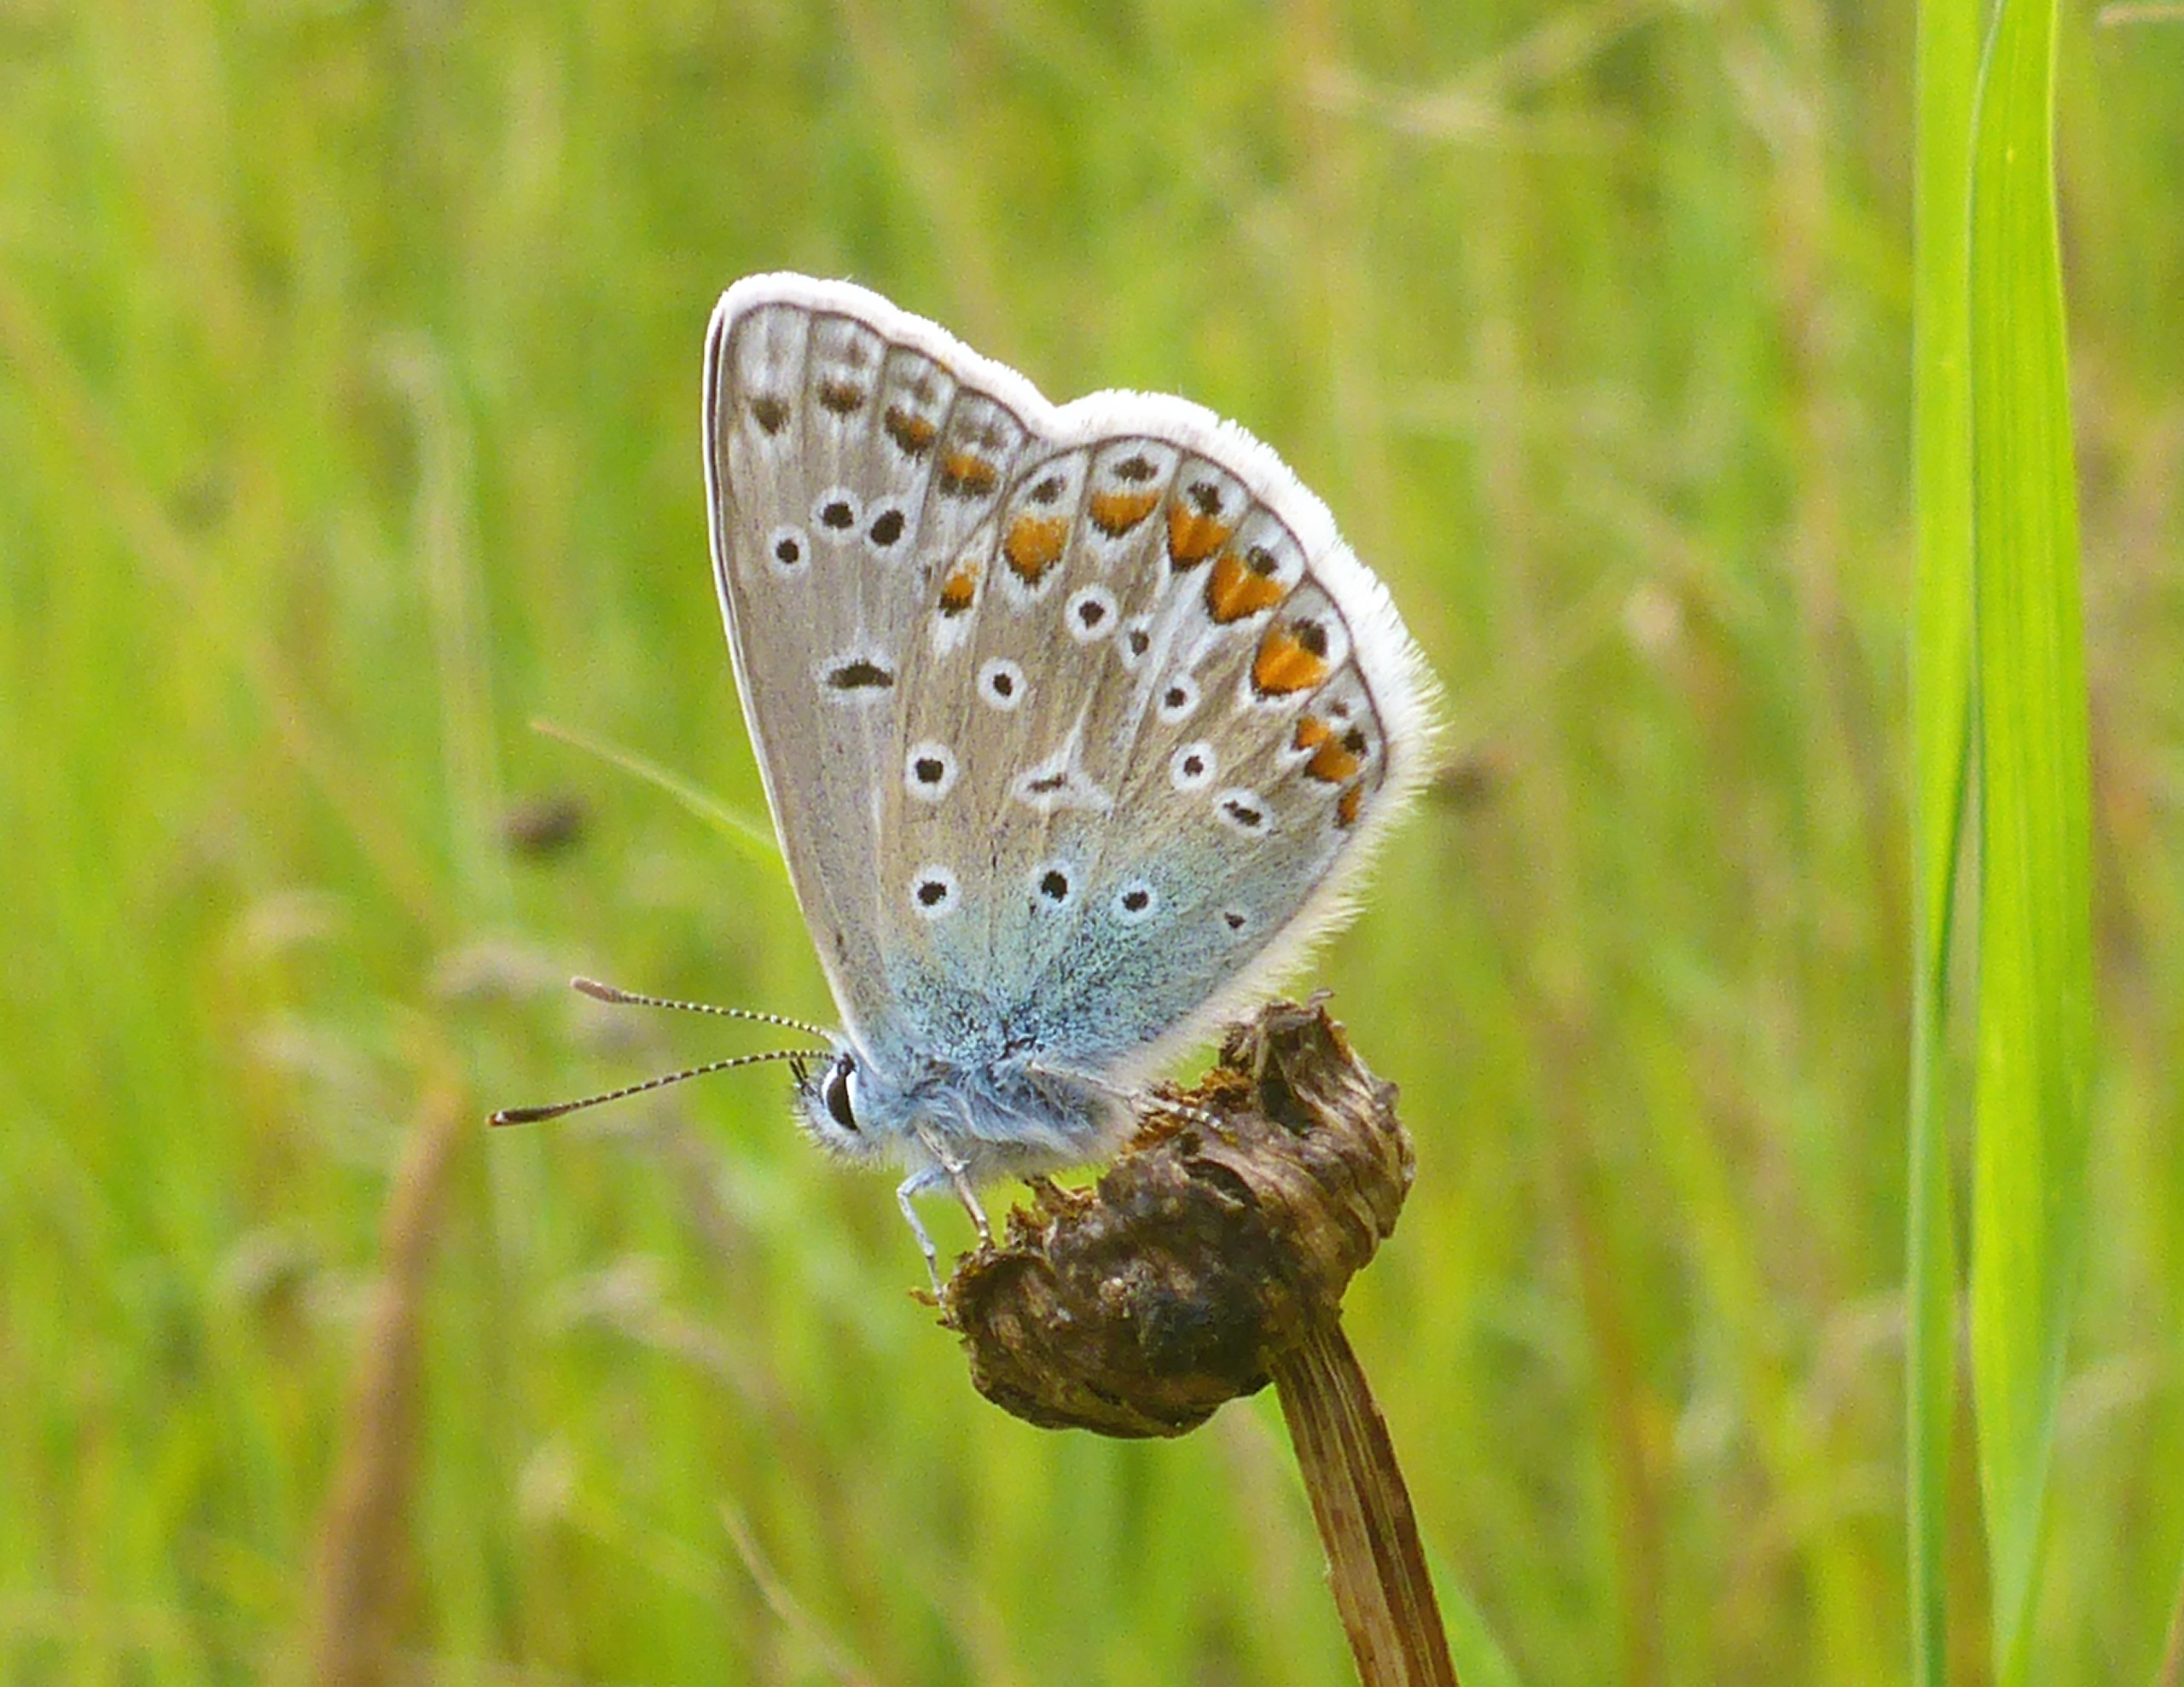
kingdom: Animalia
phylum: Arthropoda
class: Insecta
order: Lepidoptera
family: Lycaenidae
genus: Polyommatus
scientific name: Polyommatus icarus
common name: Almindelig blåfugl
